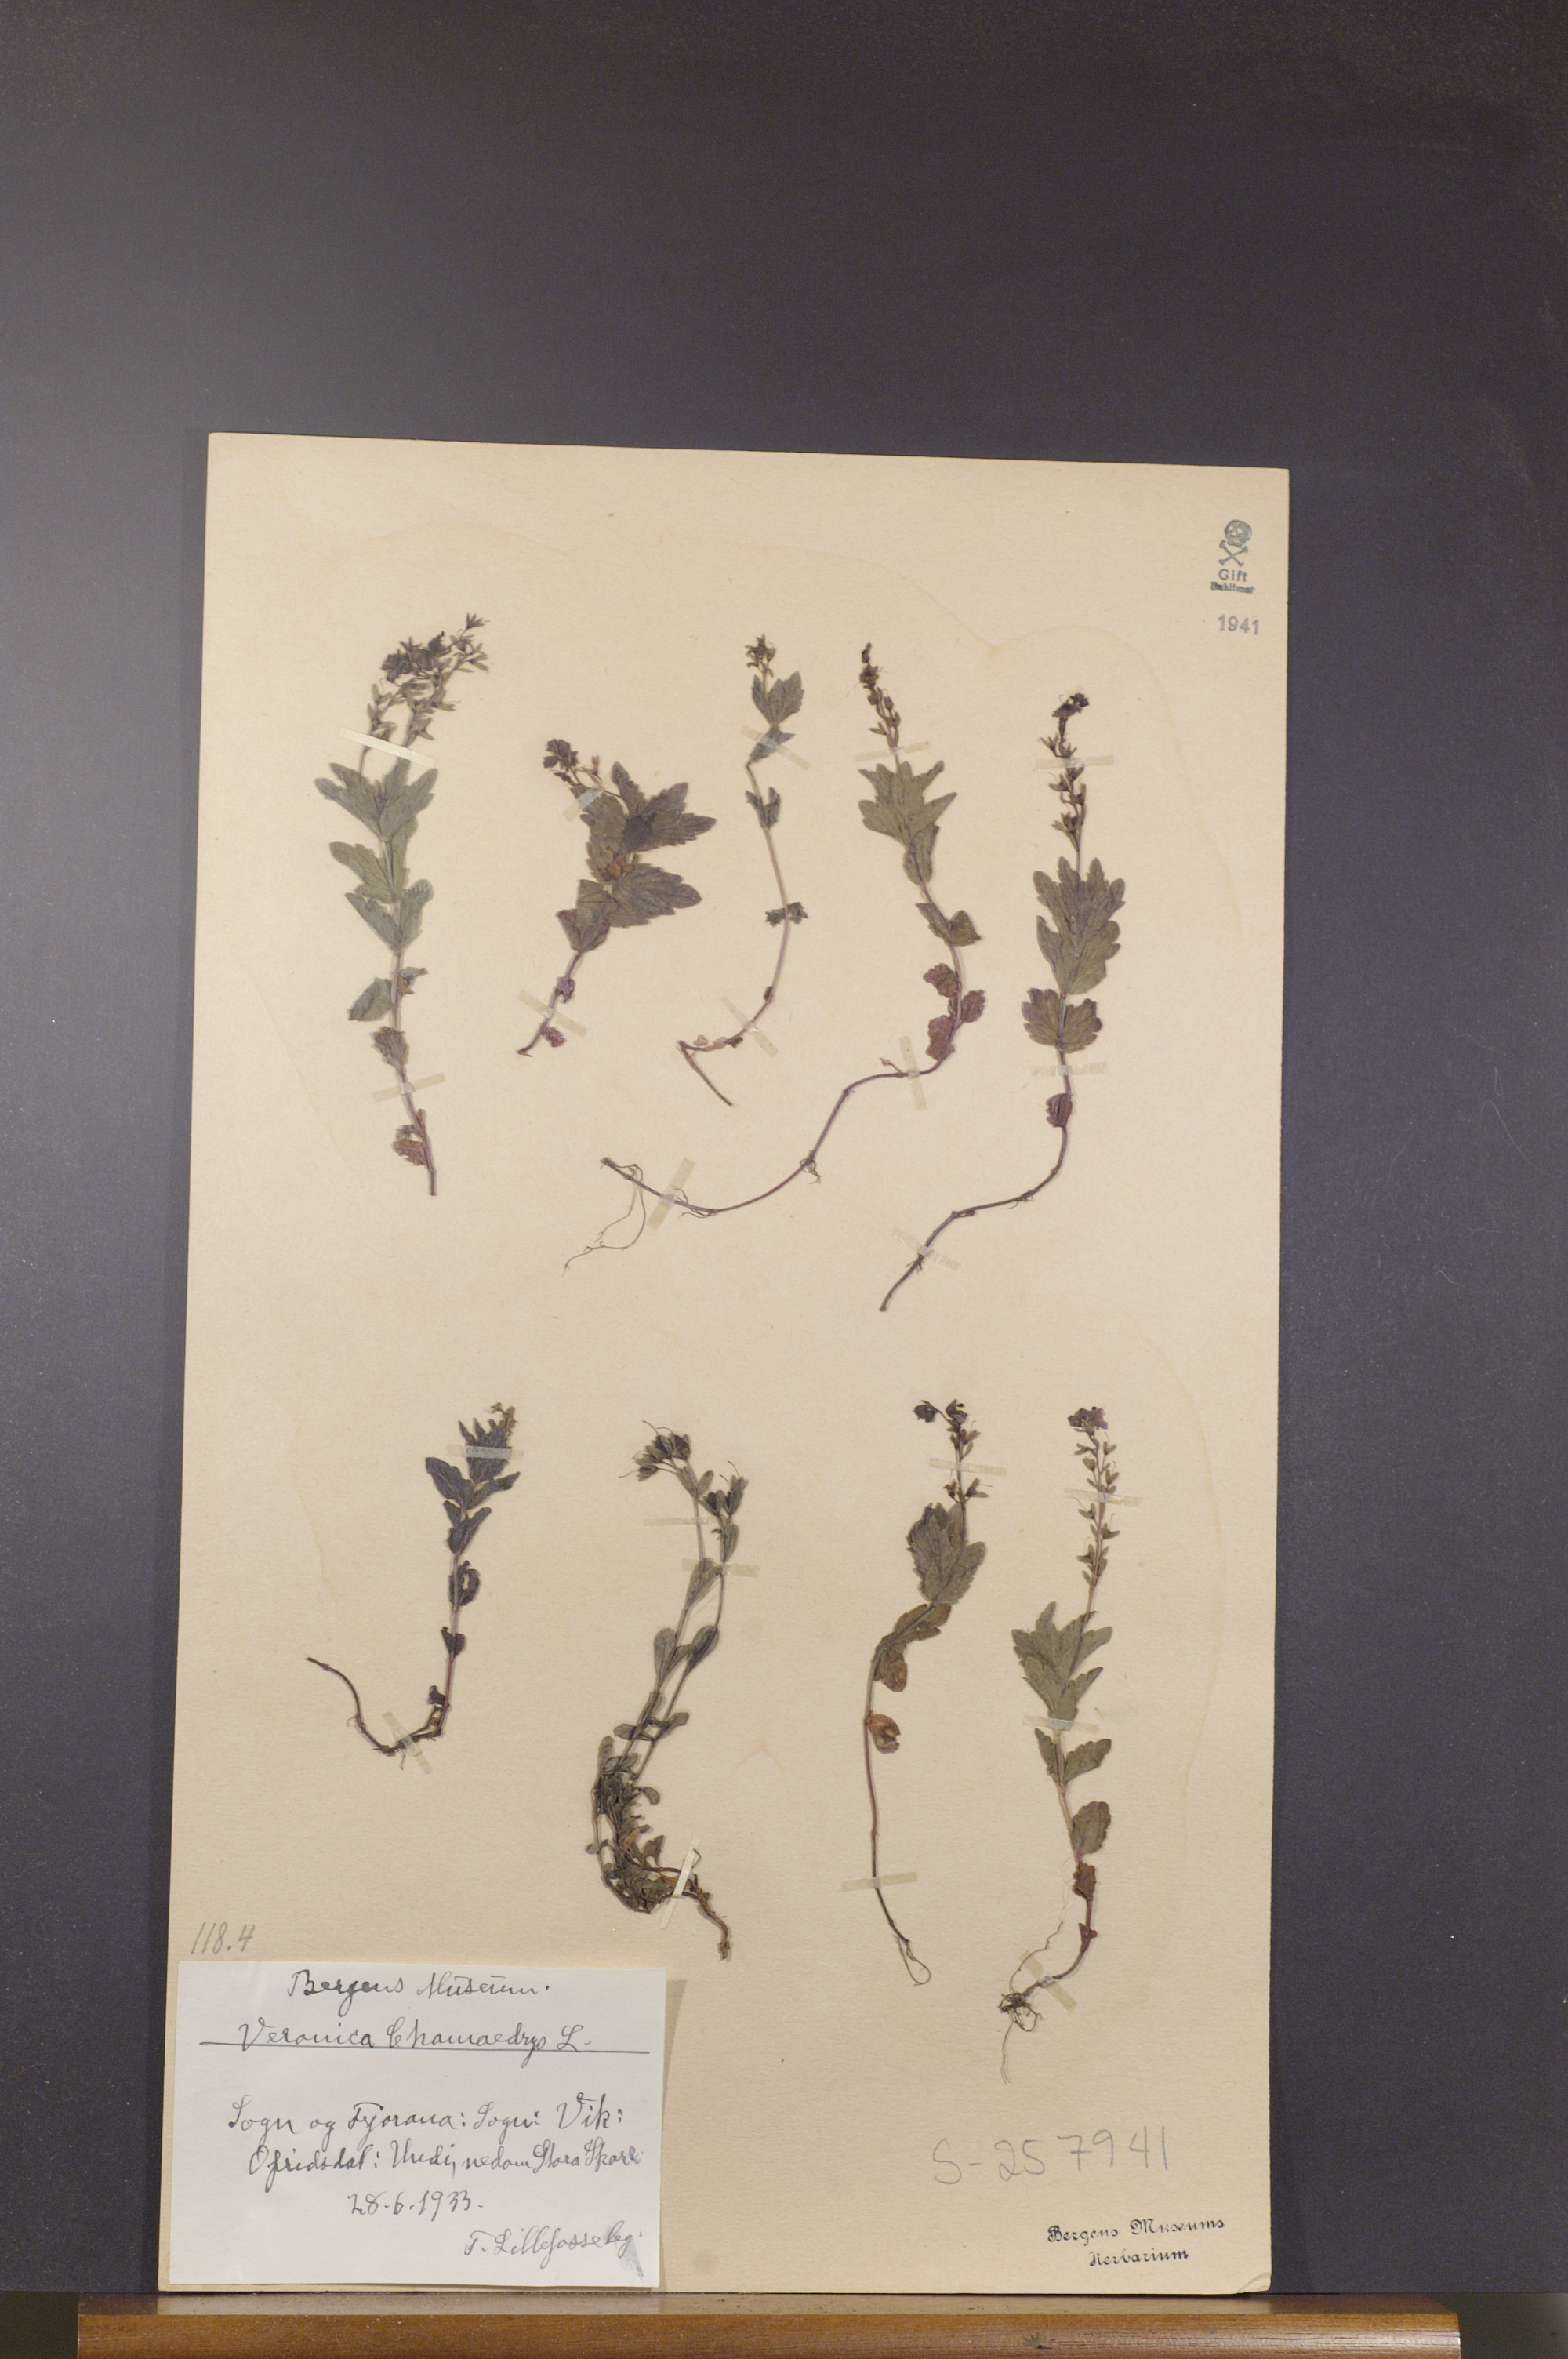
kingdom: Plantae
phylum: Tracheophyta
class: Magnoliopsida
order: Lamiales
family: Plantaginaceae
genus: Veronica
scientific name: Veronica chamaedrys
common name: Germander speedwell
